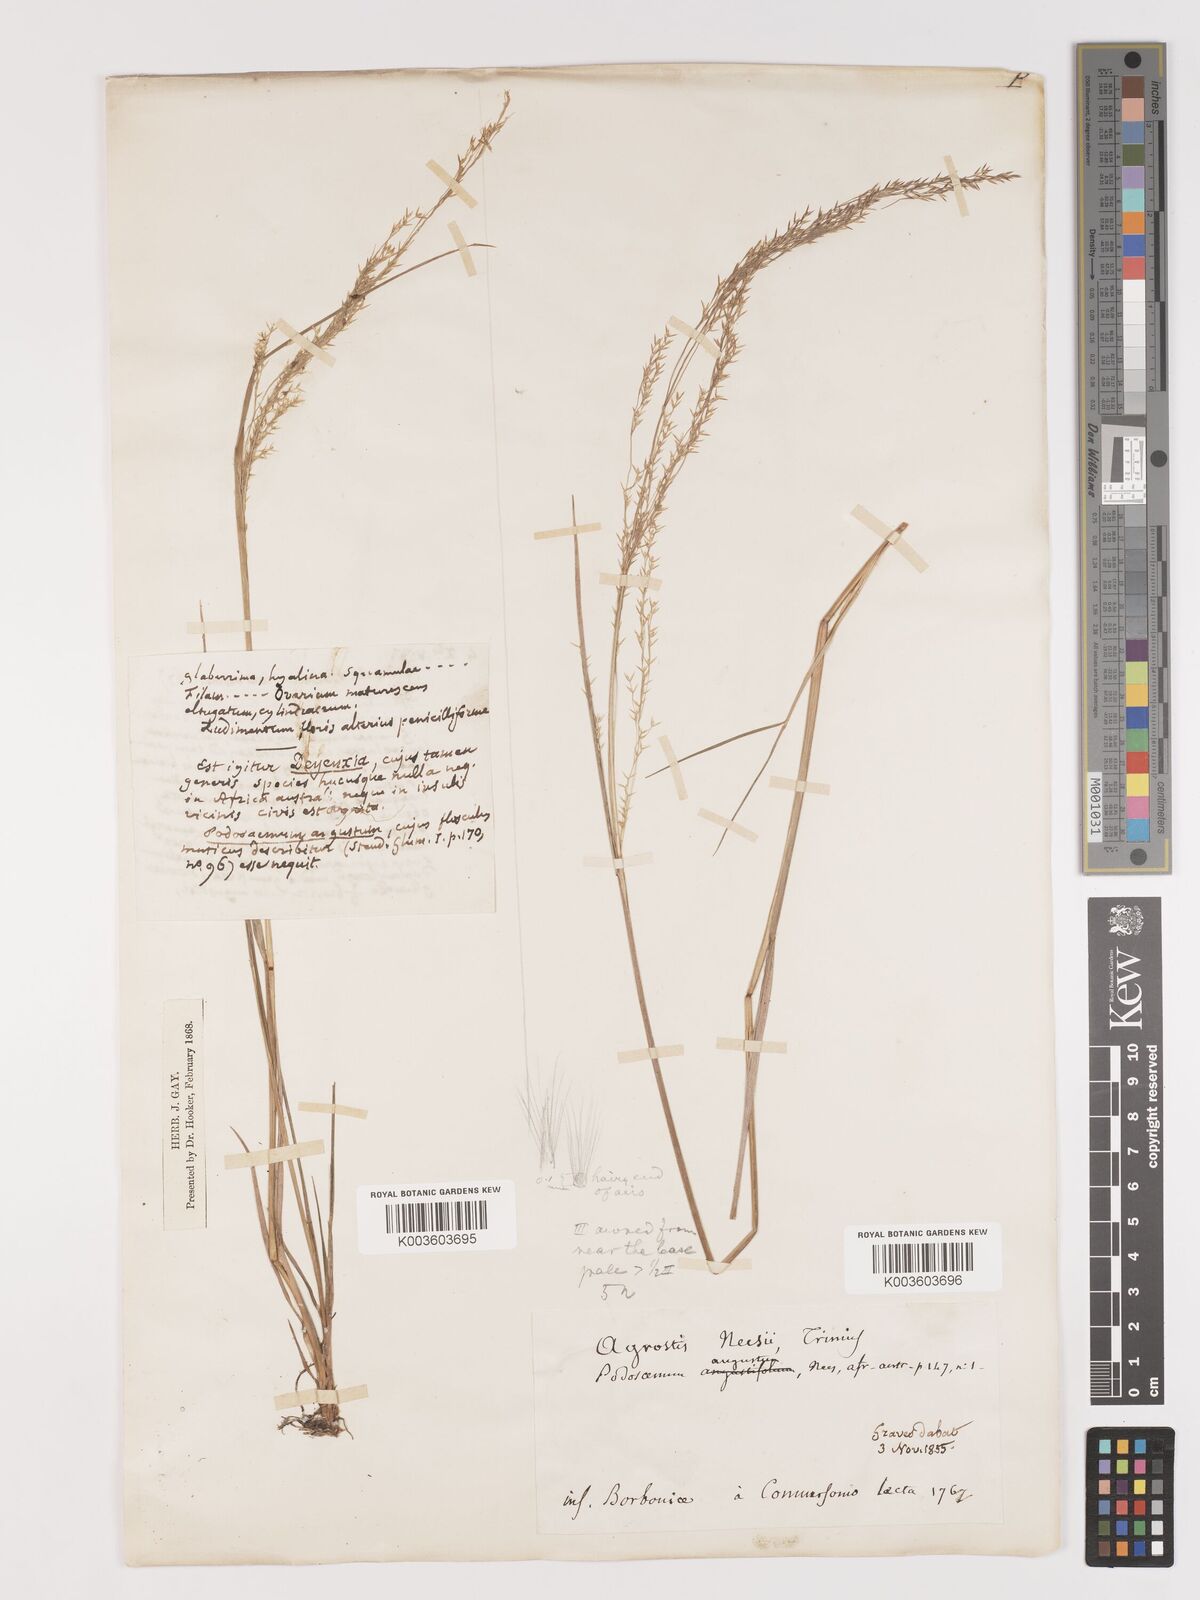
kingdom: Plantae
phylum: Tracheophyta
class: Liliopsida
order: Poales
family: Poaceae
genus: Agrostis
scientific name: Agrostis salaziensis
